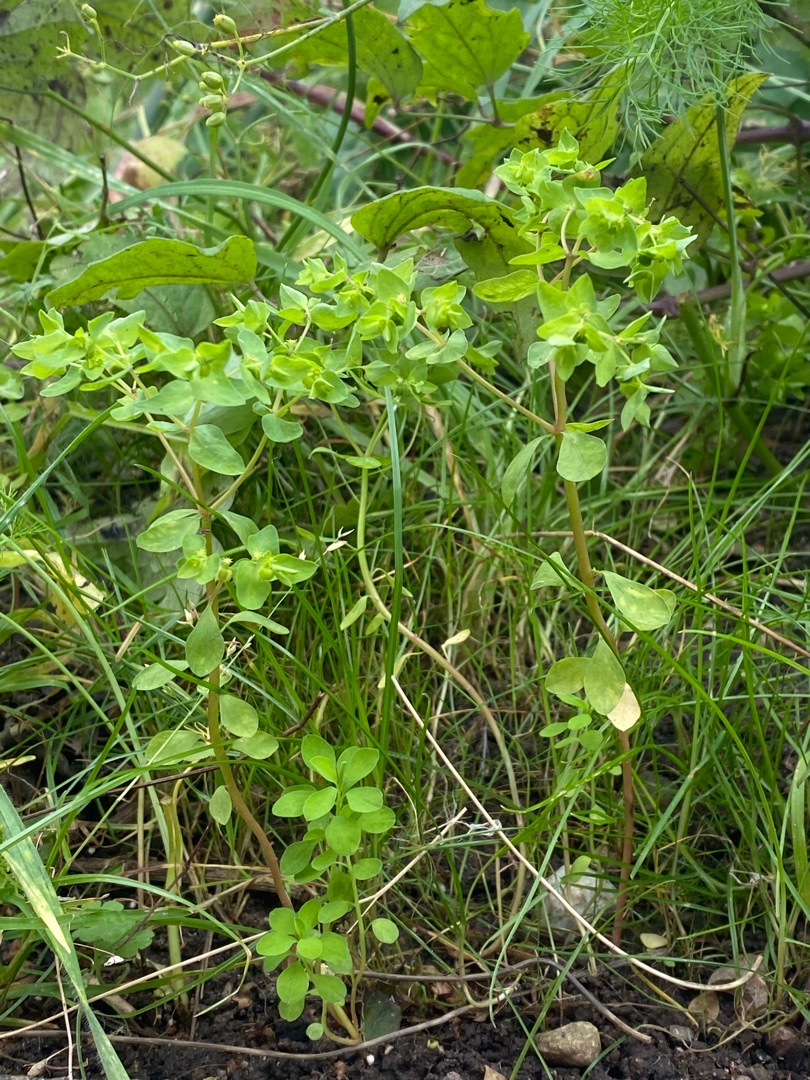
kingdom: Plantae
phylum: Tracheophyta
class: Magnoliopsida
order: Malpighiales
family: Euphorbiaceae
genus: Euphorbia
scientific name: Euphorbia peplus
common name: Gaffel-vortemælk
